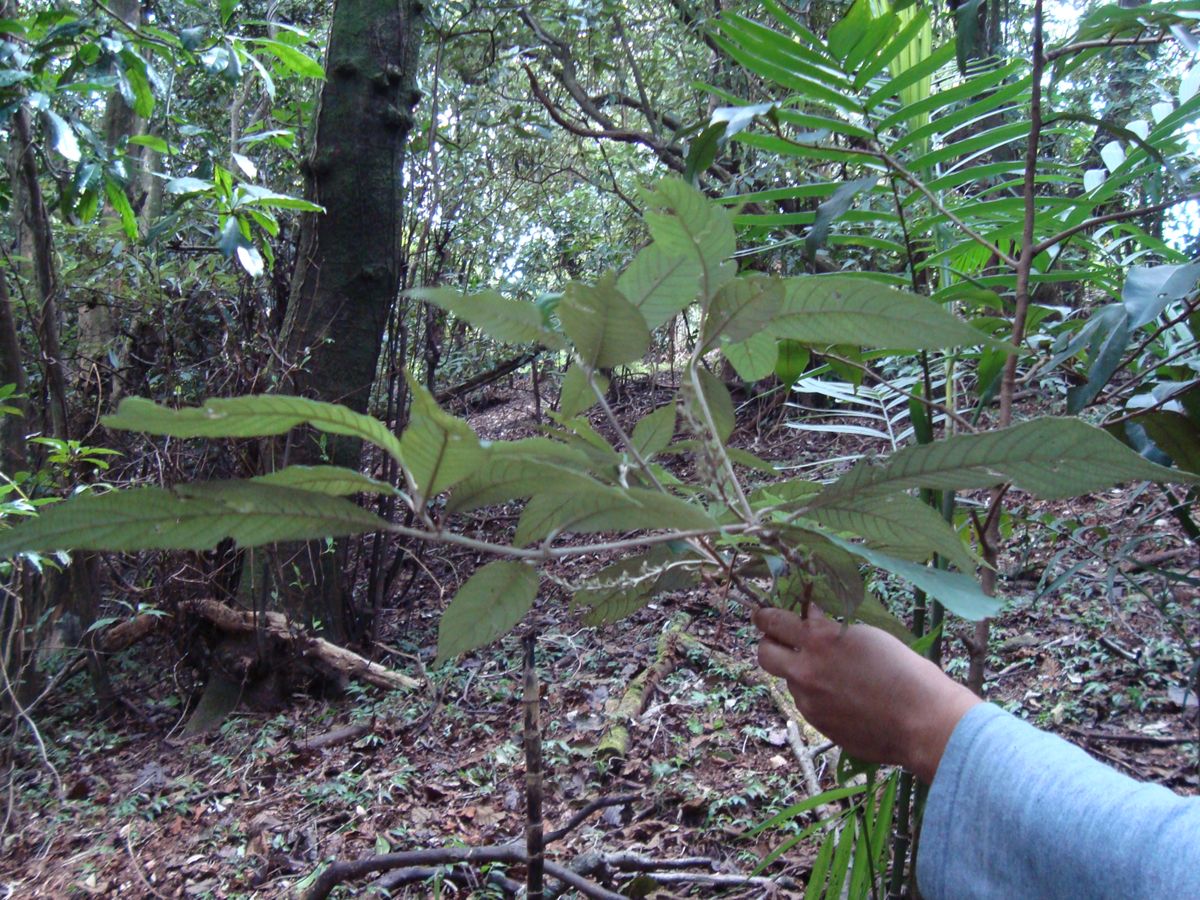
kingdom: Plantae
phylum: Tracheophyta
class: Magnoliopsida
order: Gentianales
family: Rubiaceae
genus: Arachnothryx
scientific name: Arachnothryx laniflora
